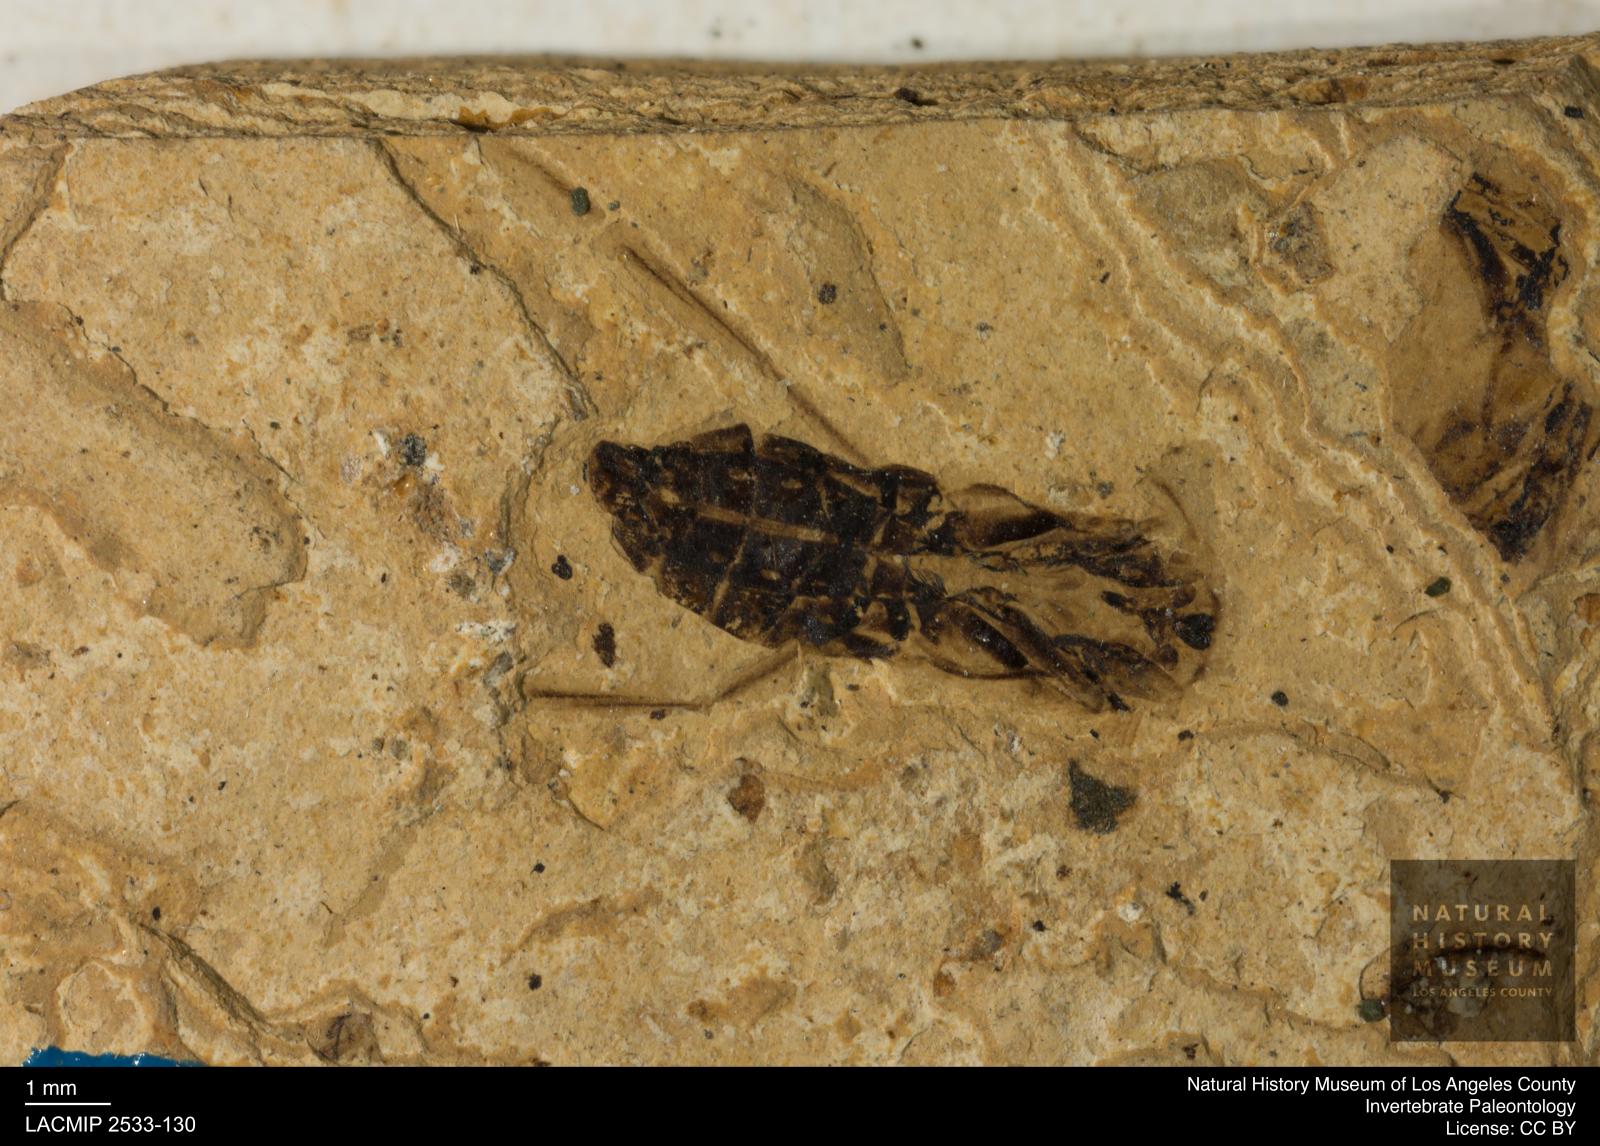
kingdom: Animalia
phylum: Arthropoda
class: Insecta
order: Hemiptera
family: Notonectidae
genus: Anisops
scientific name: Anisops Notonecta heydeni
